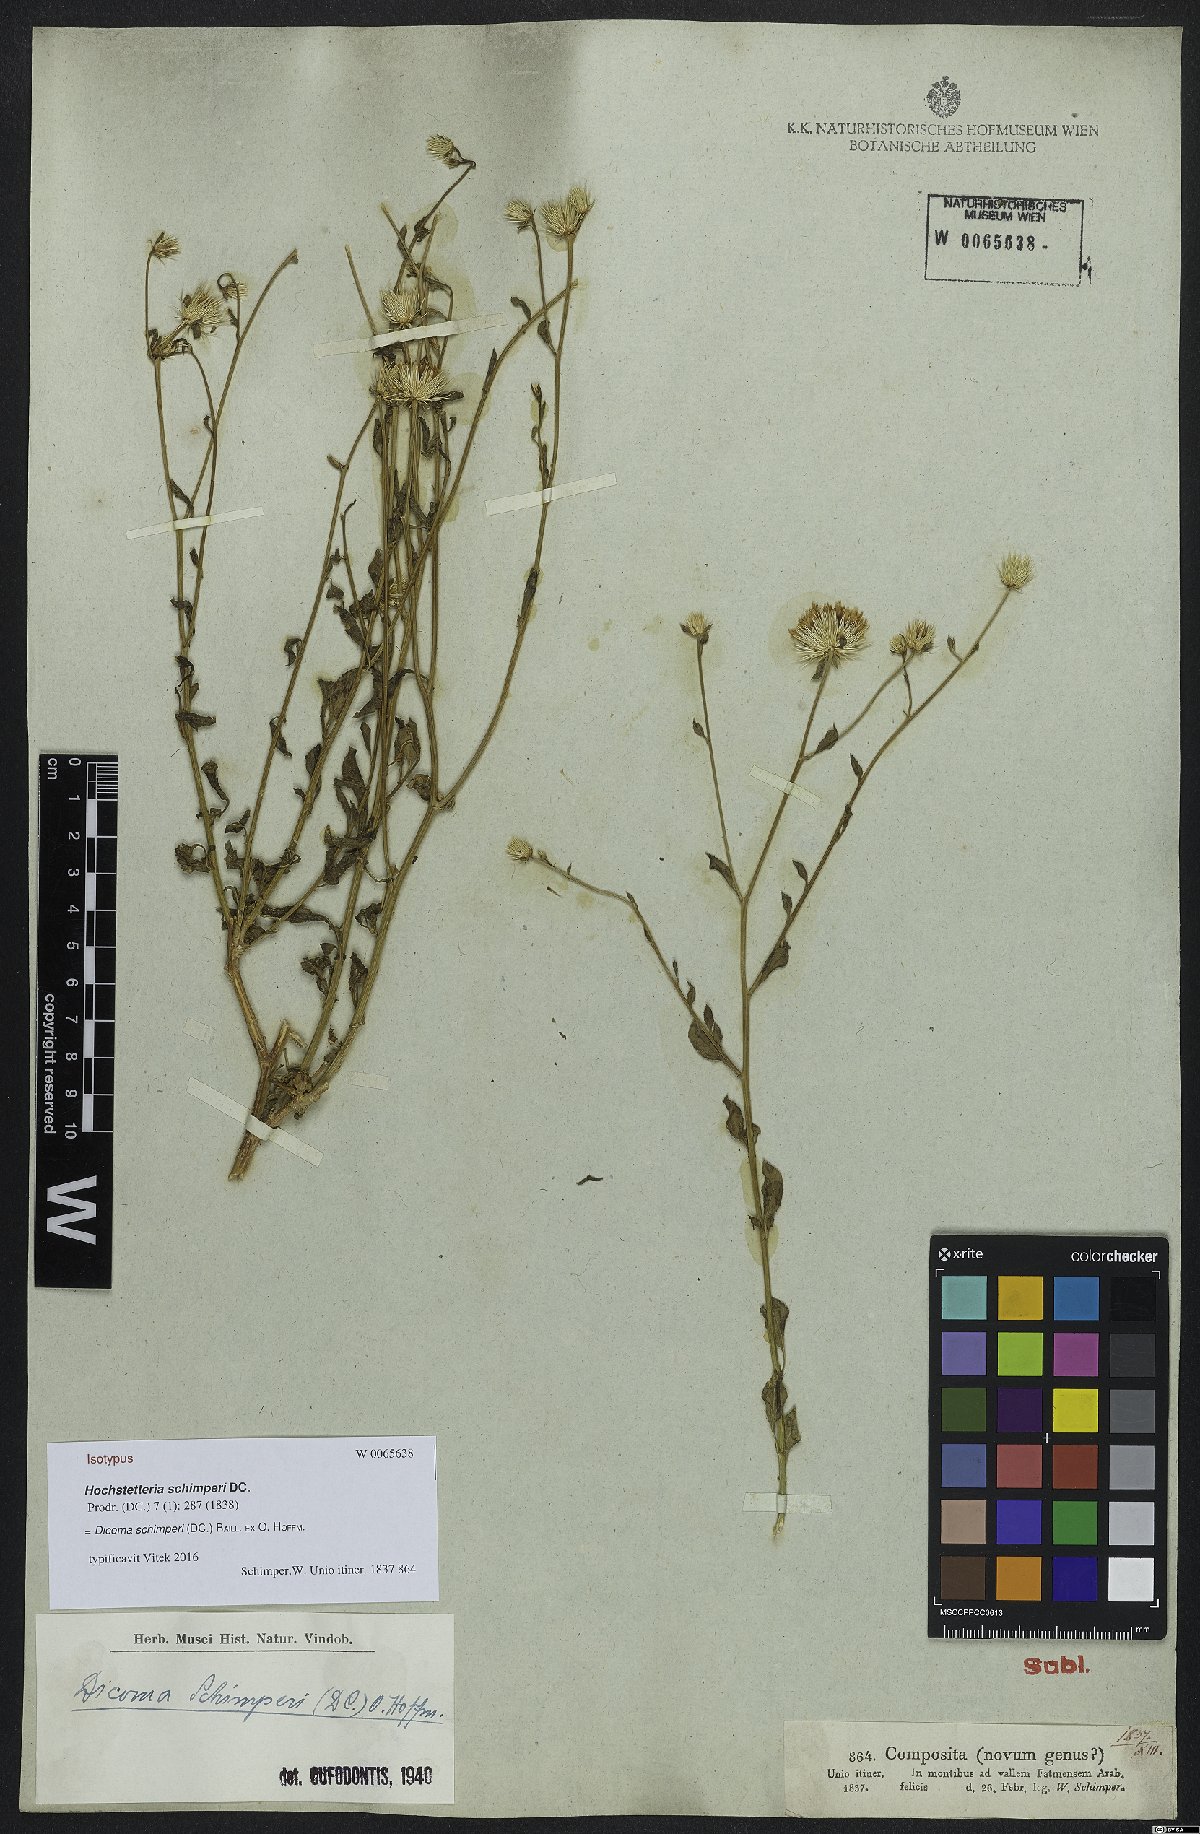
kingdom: Plantae
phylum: Tracheophyta
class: Magnoliopsida
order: Asterales
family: Asteraceae
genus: Dicoma
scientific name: Dicoma schimperi
